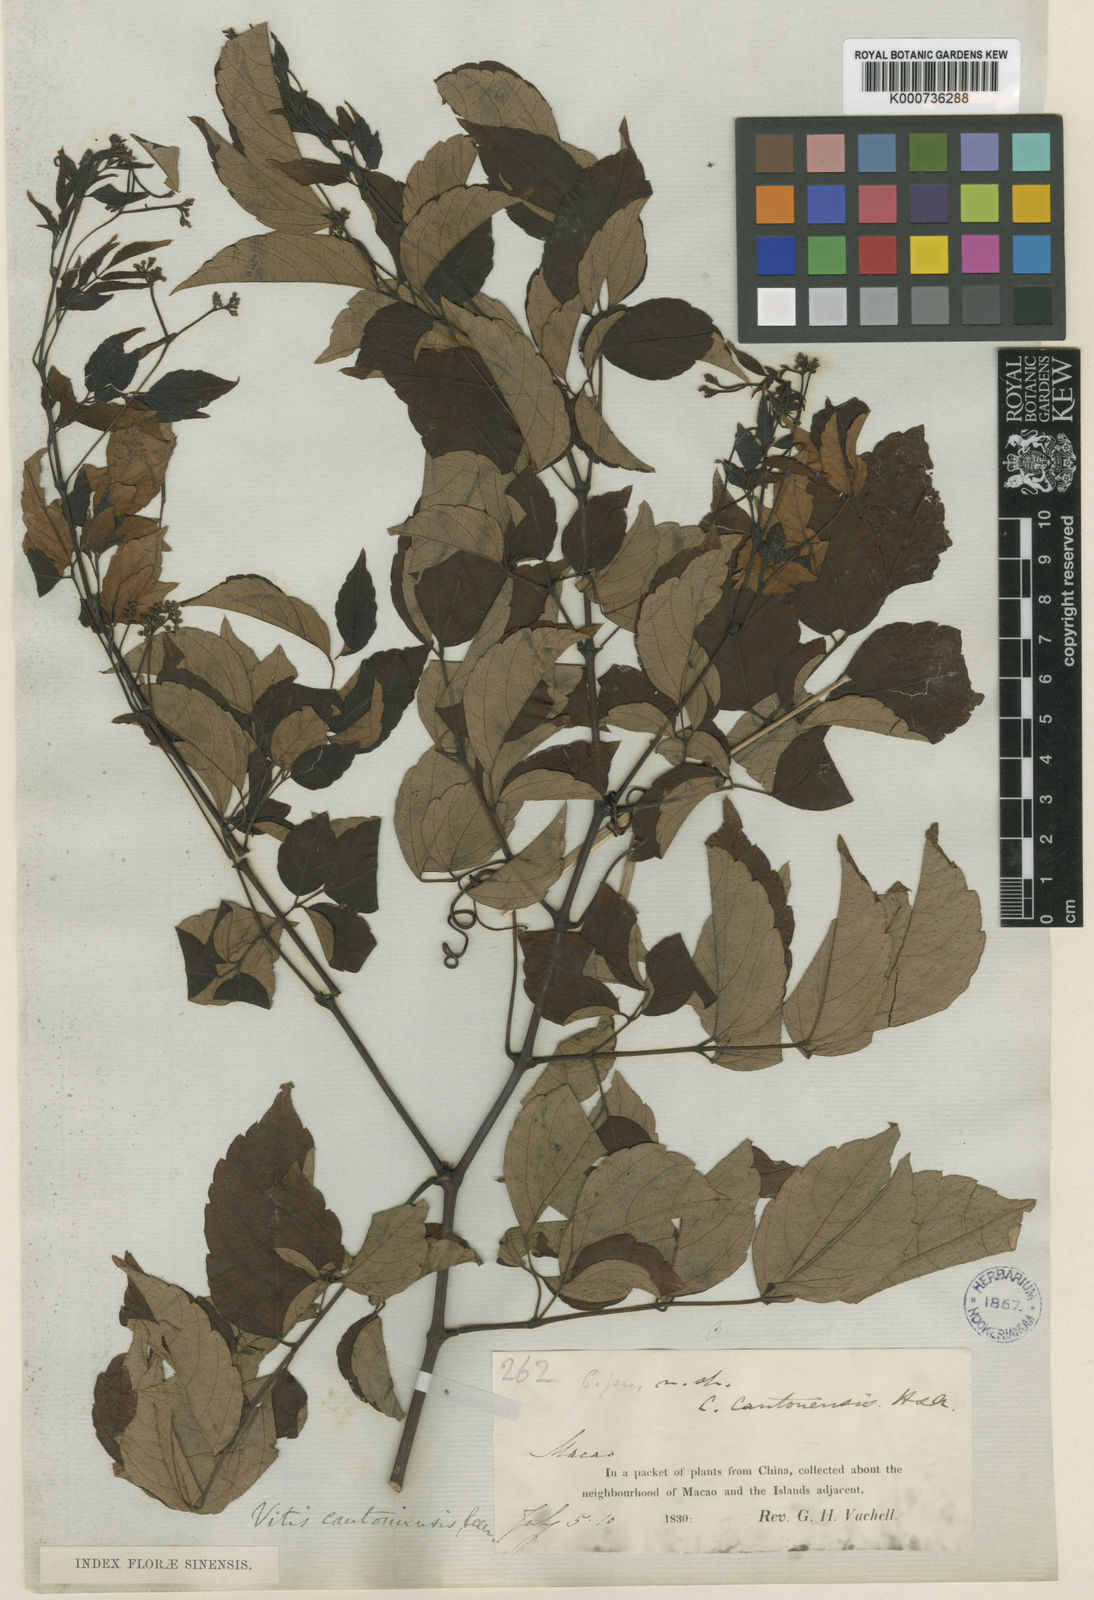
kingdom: Plantae
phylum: Tracheophyta
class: Magnoliopsida
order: Vitales
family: Vitaceae
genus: Nekemias
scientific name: Nekemias cantoniensis
